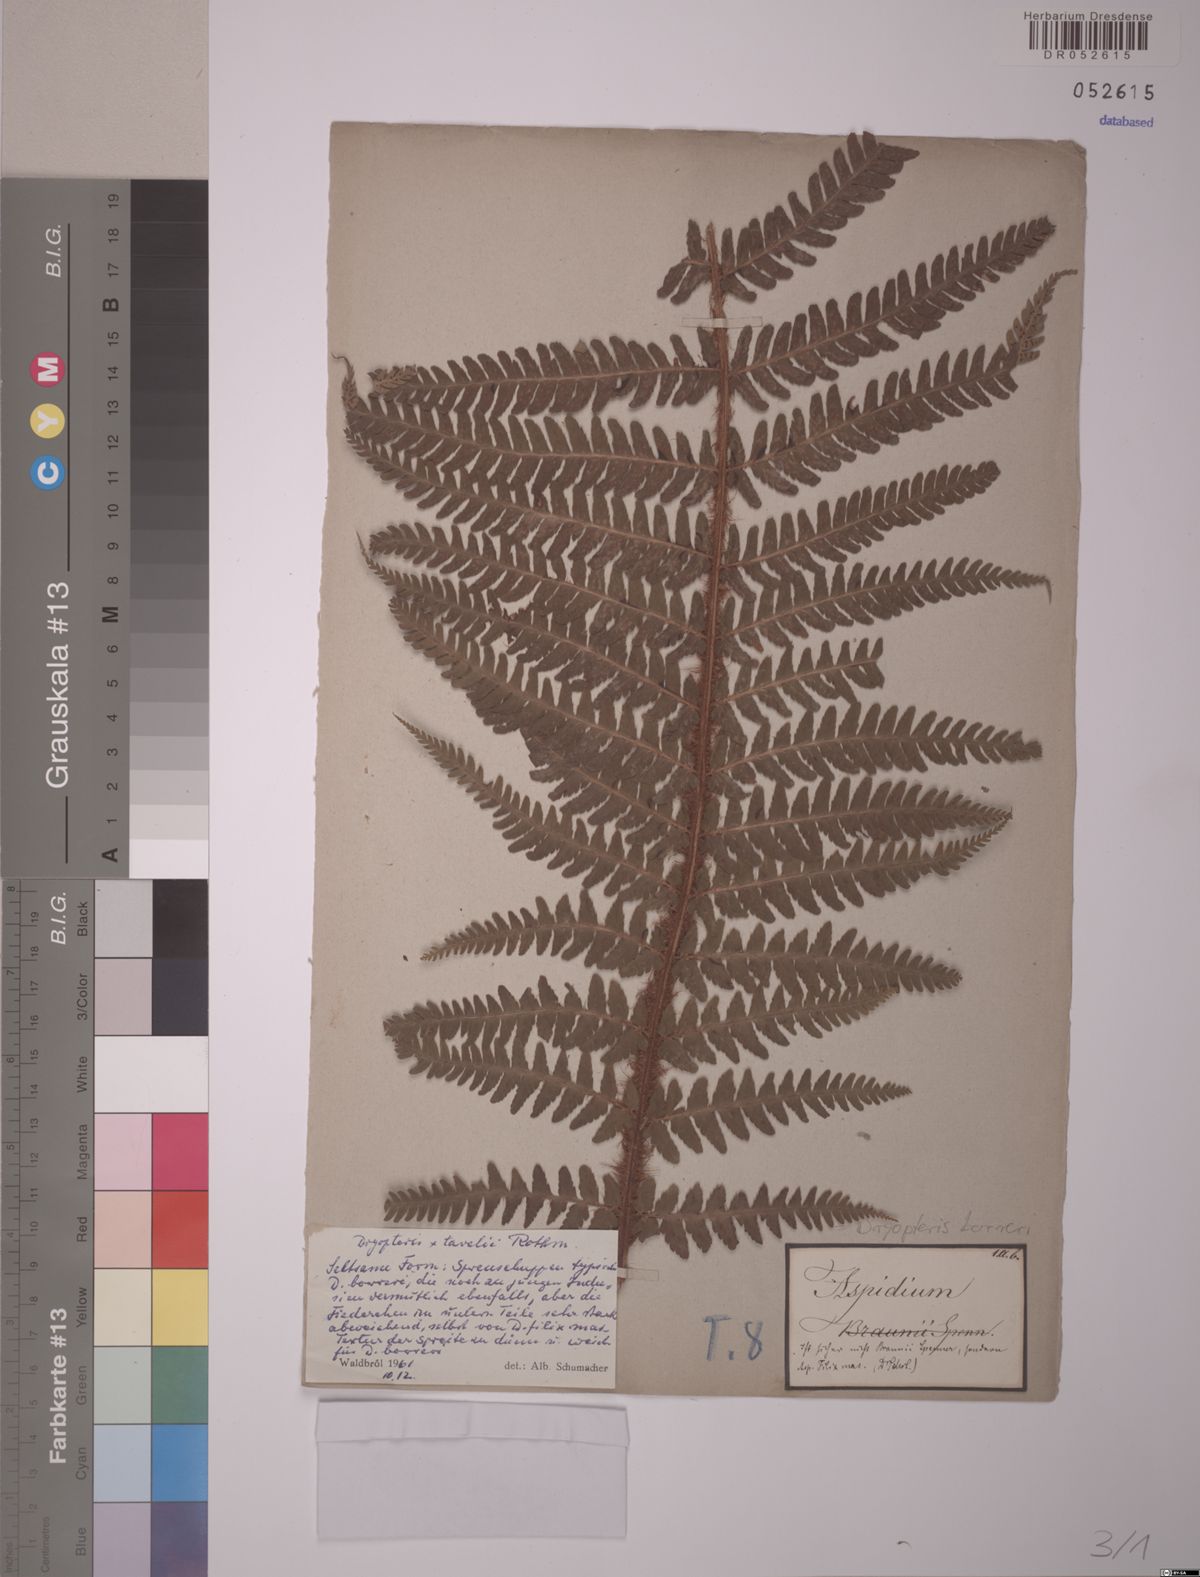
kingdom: Plantae
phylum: Tracheophyta
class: Polypodiopsida
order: Polypodiales
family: Dryopteridaceae
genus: Dryopteris
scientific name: Dryopteris borreri
